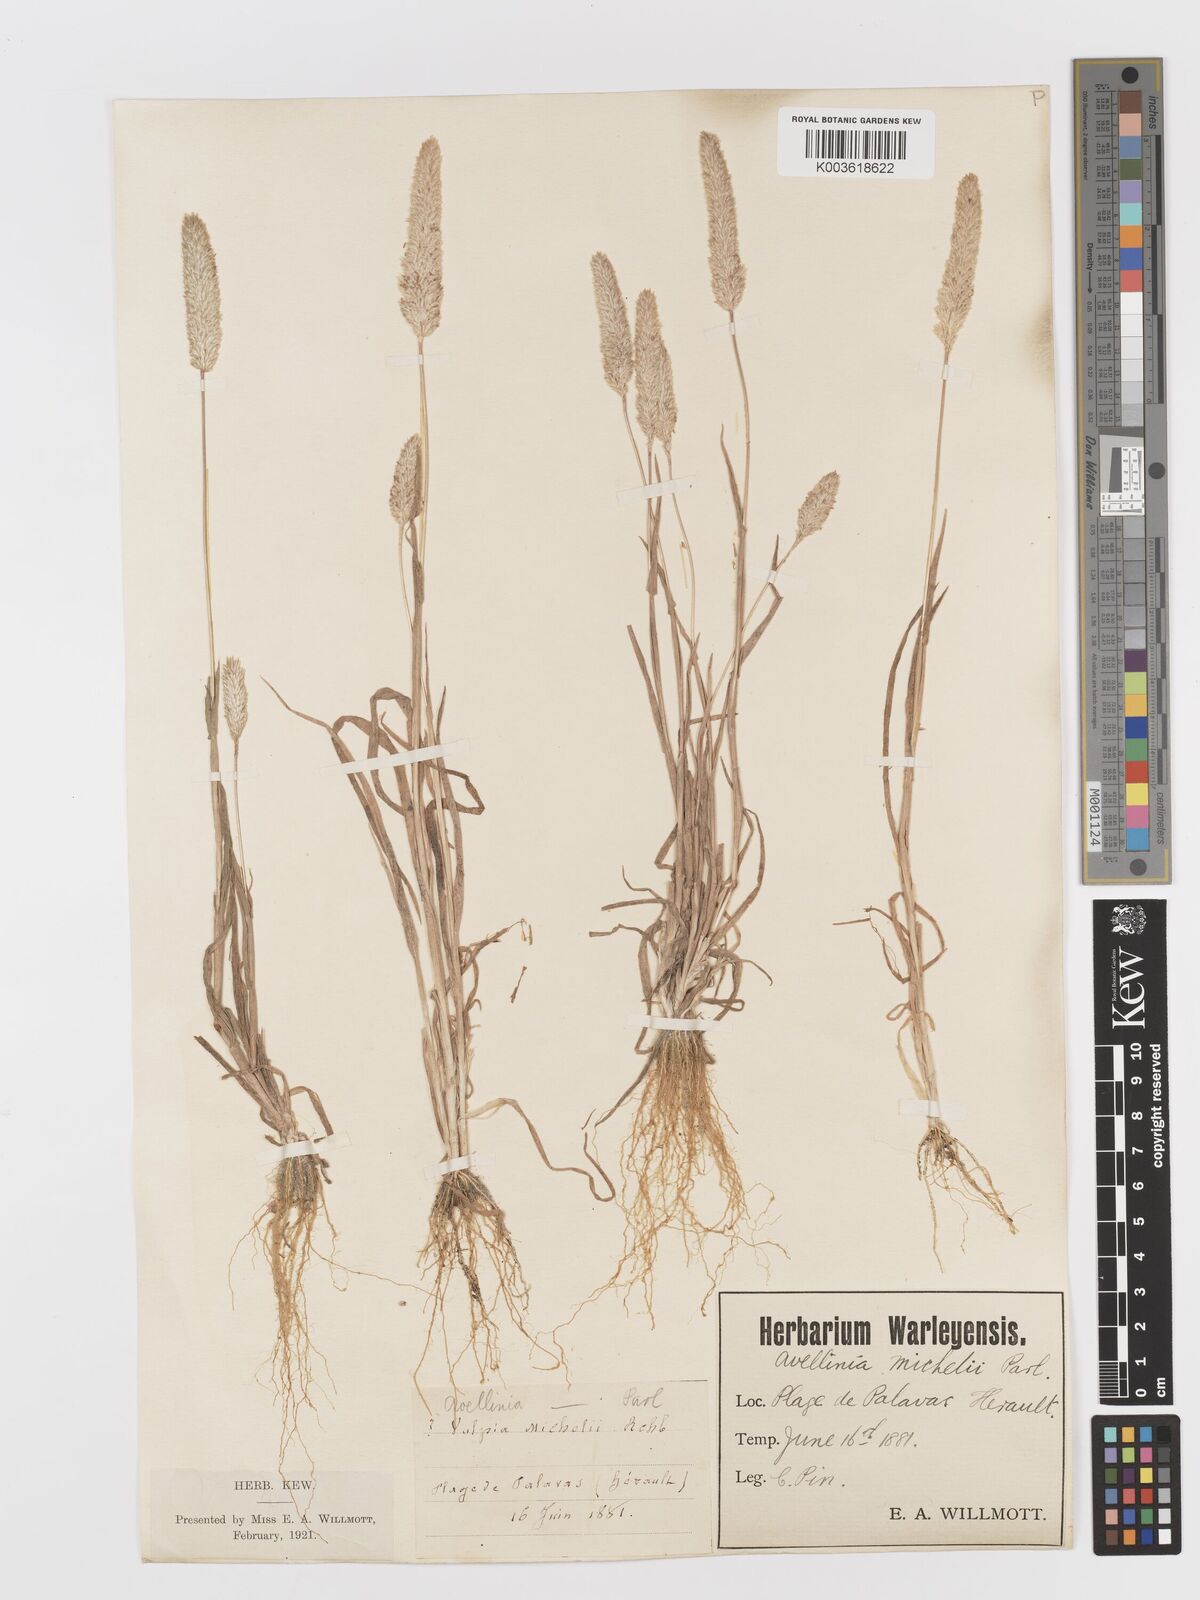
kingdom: Plantae
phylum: Tracheophyta
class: Liliopsida
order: Poales
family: Poaceae
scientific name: Poaceae
